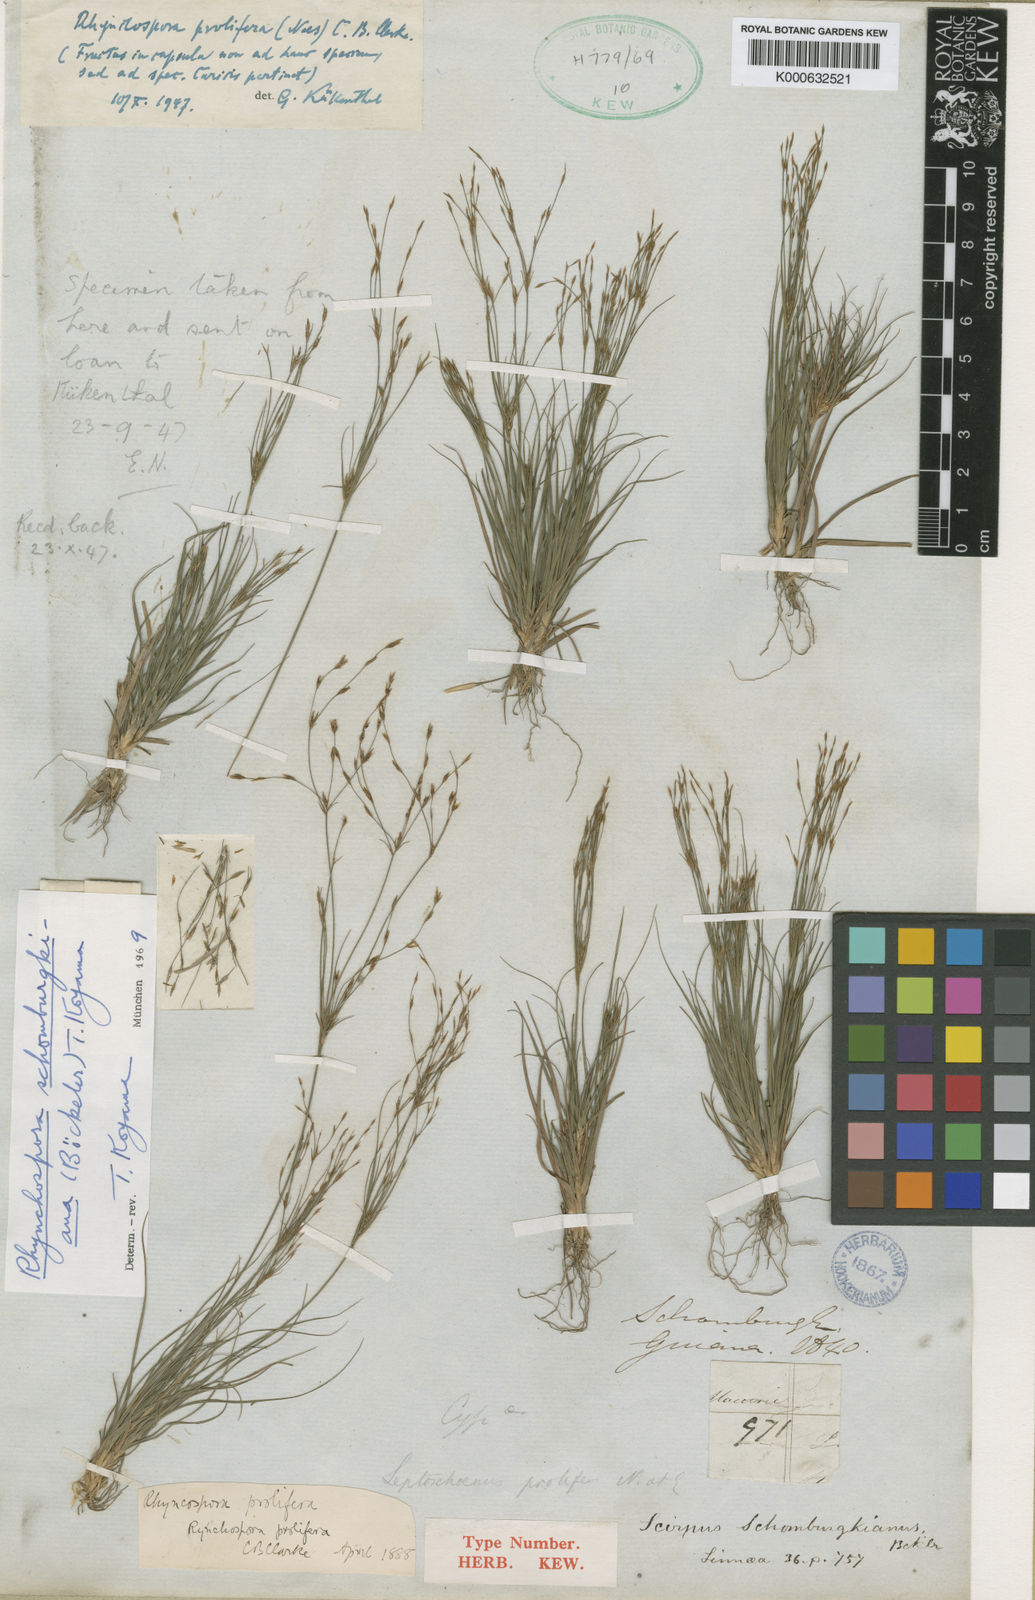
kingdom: Plantae
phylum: Tracheophyta
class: Liliopsida
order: Poales
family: Cyperaceae
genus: Rhynchospora
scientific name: Rhynchospora schomburgkiana
